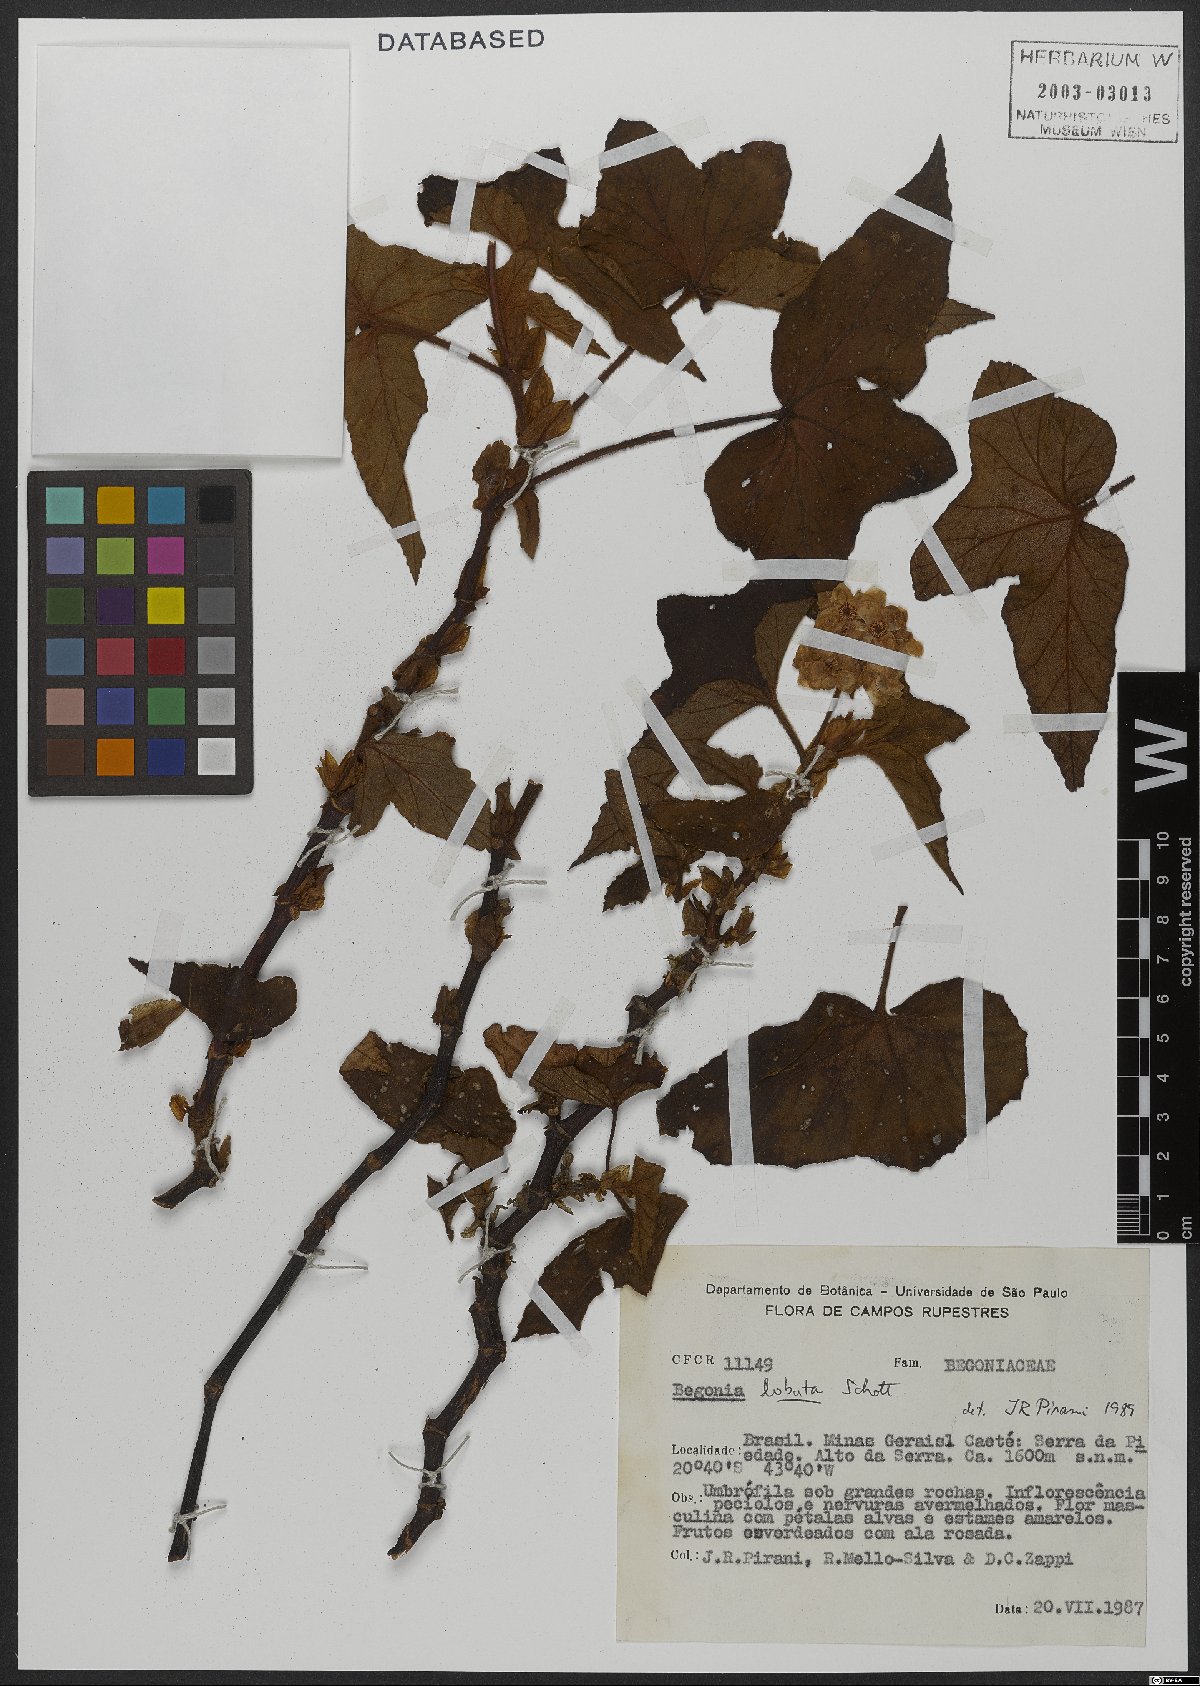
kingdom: Plantae
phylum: Tracheophyta
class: Magnoliopsida
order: Cucurbitales
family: Begoniaceae
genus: Begonia
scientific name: Begonia rufa
